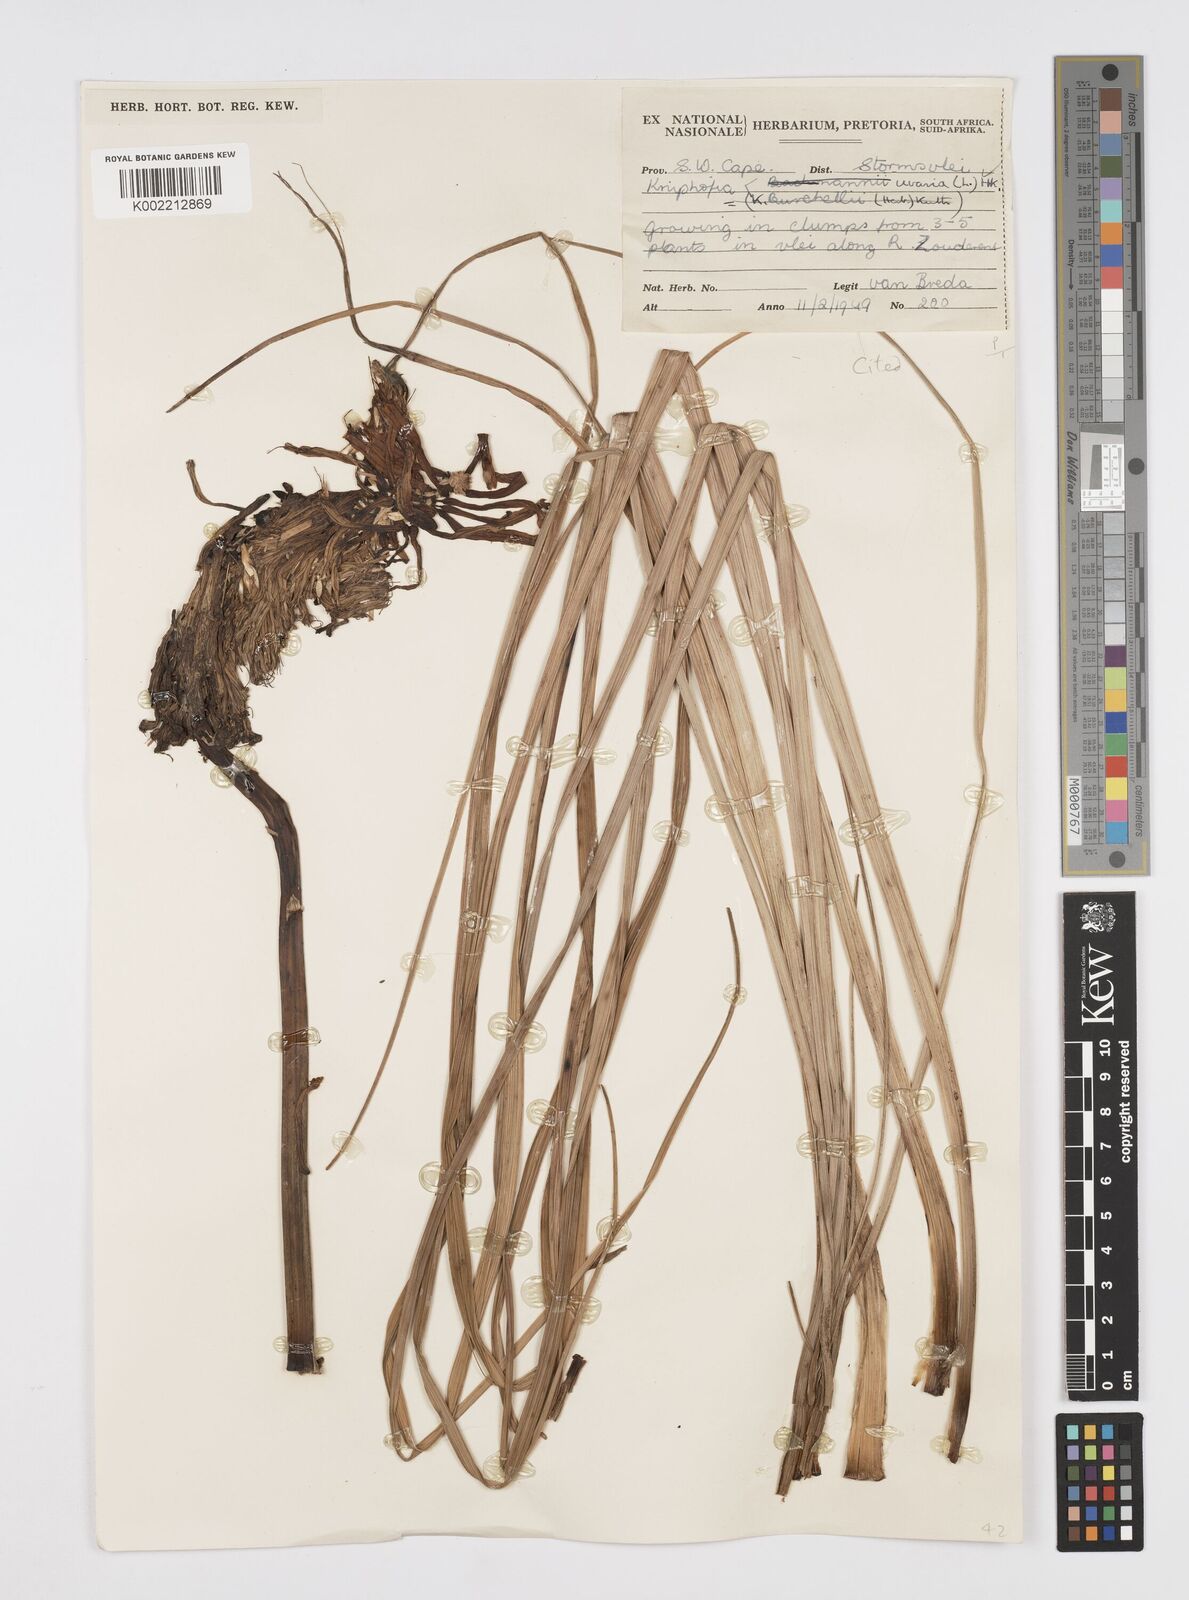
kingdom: Plantae
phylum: Tracheophyta
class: Liliopsida
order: Asparagales
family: Asphodelaceae
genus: Kniphofia
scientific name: Kniphofia uvaria
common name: Red-hot-poker
